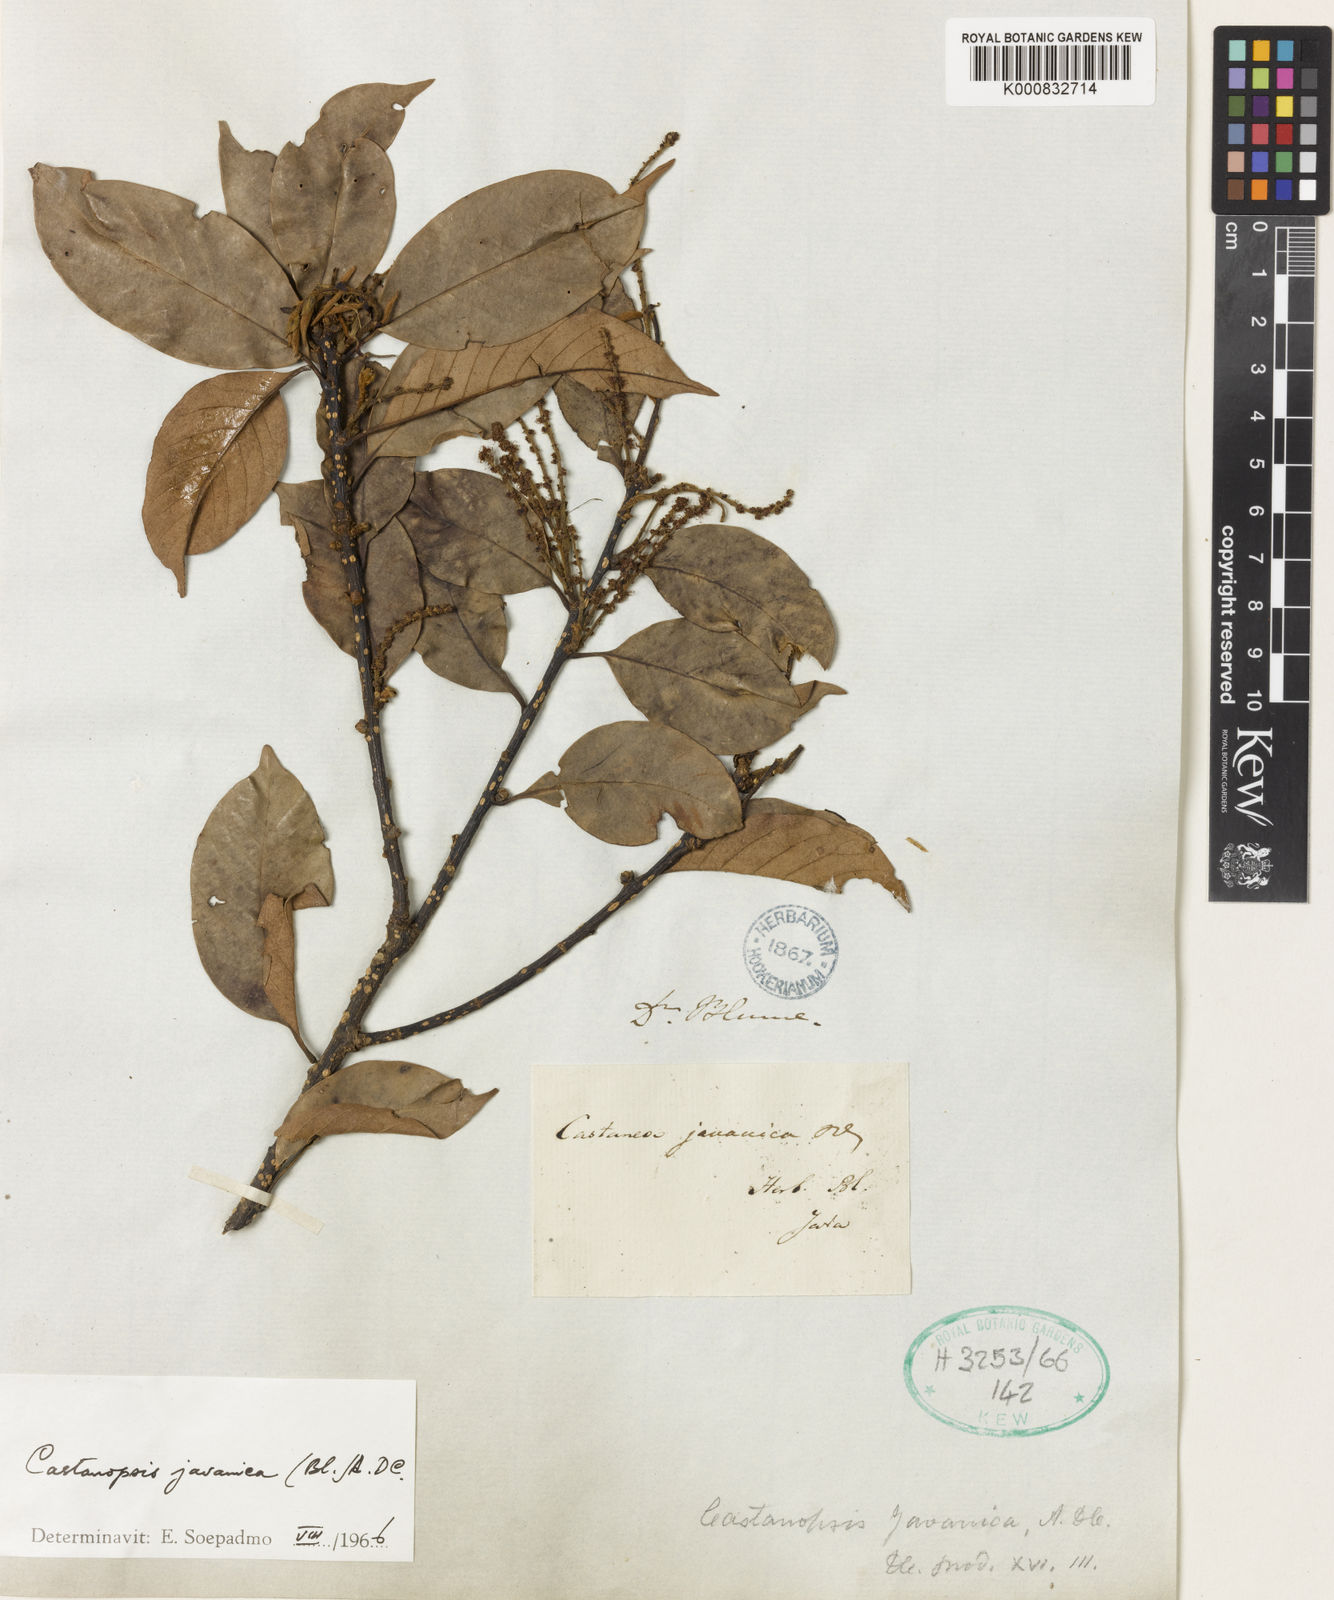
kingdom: Plantae
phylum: Tracheophyta
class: Magnoliopsida
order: Fagales
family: Fagaceae
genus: Castanopsis
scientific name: Castanopsis javanica
